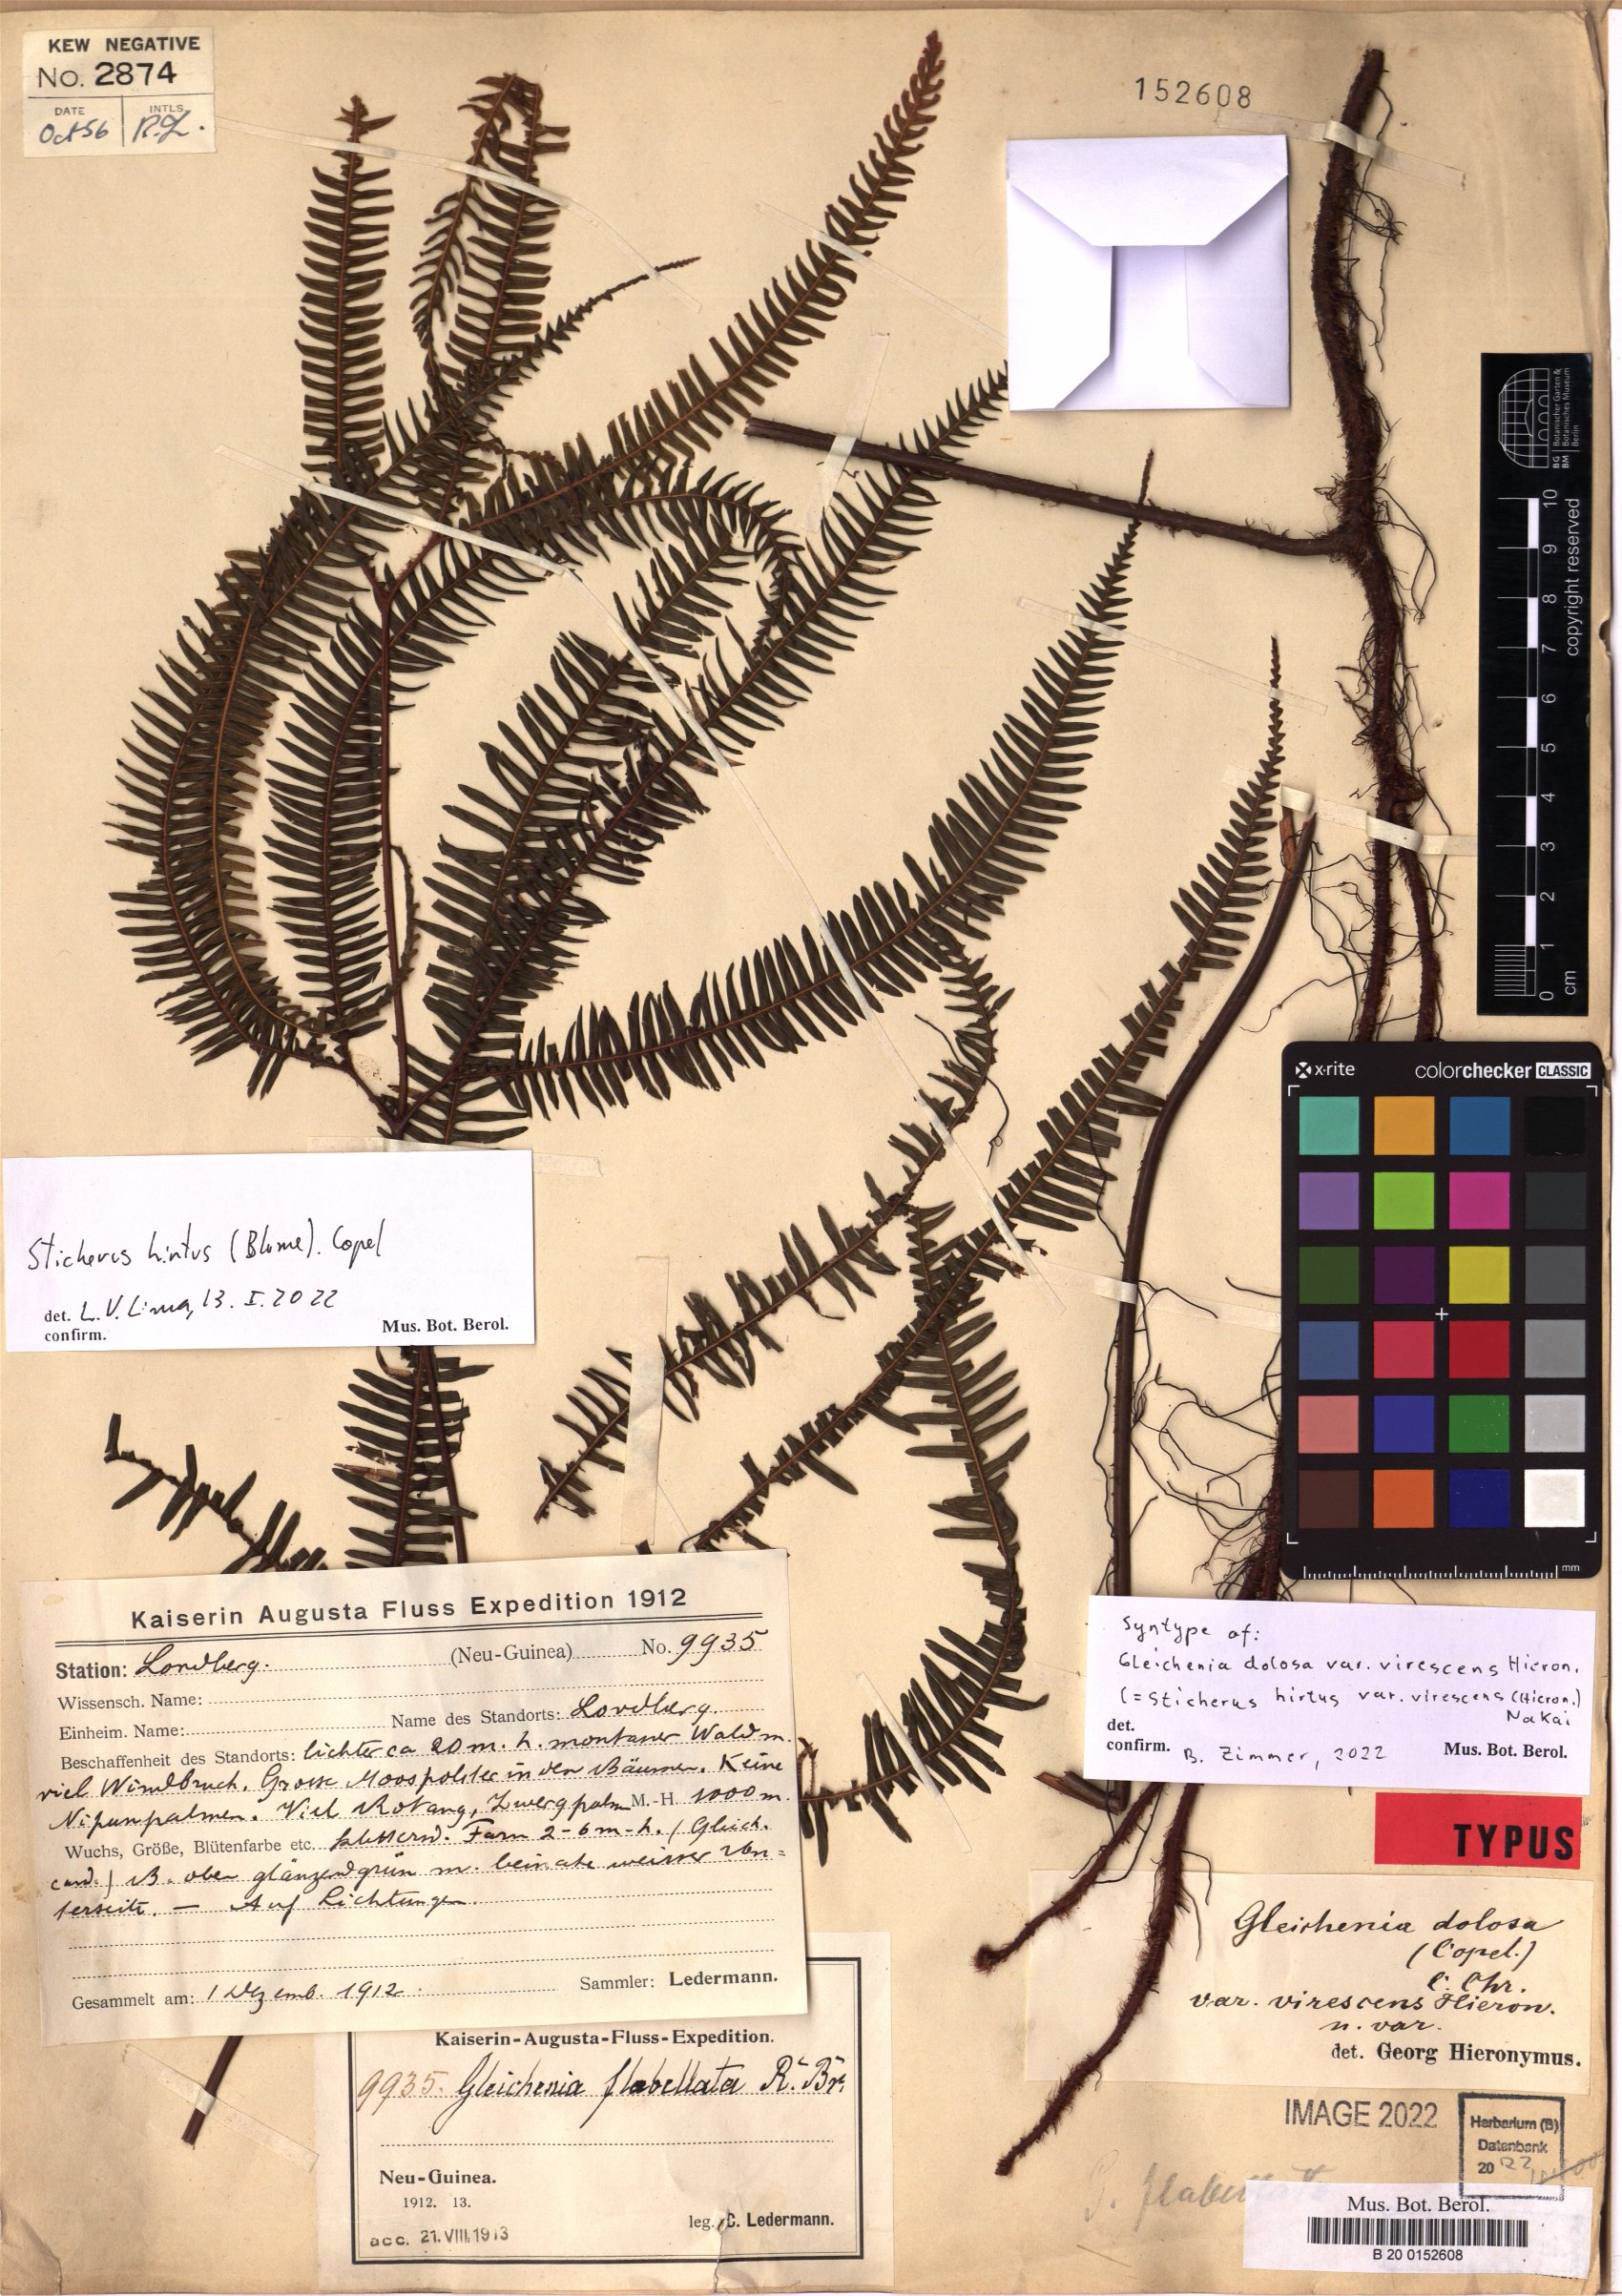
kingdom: Plantae
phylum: Tracheophyta
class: Polypodiopsida
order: Gleicheniales
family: Gleicheniaceae
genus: Sticherus
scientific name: Sticherus hirtus
